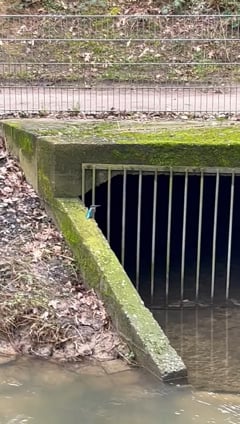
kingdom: Animalia
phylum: Chordata
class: Aves
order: Coraciiformes
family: Alcedinidae
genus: Alcedo
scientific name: Alcedo atthis
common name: Common kingfisher
